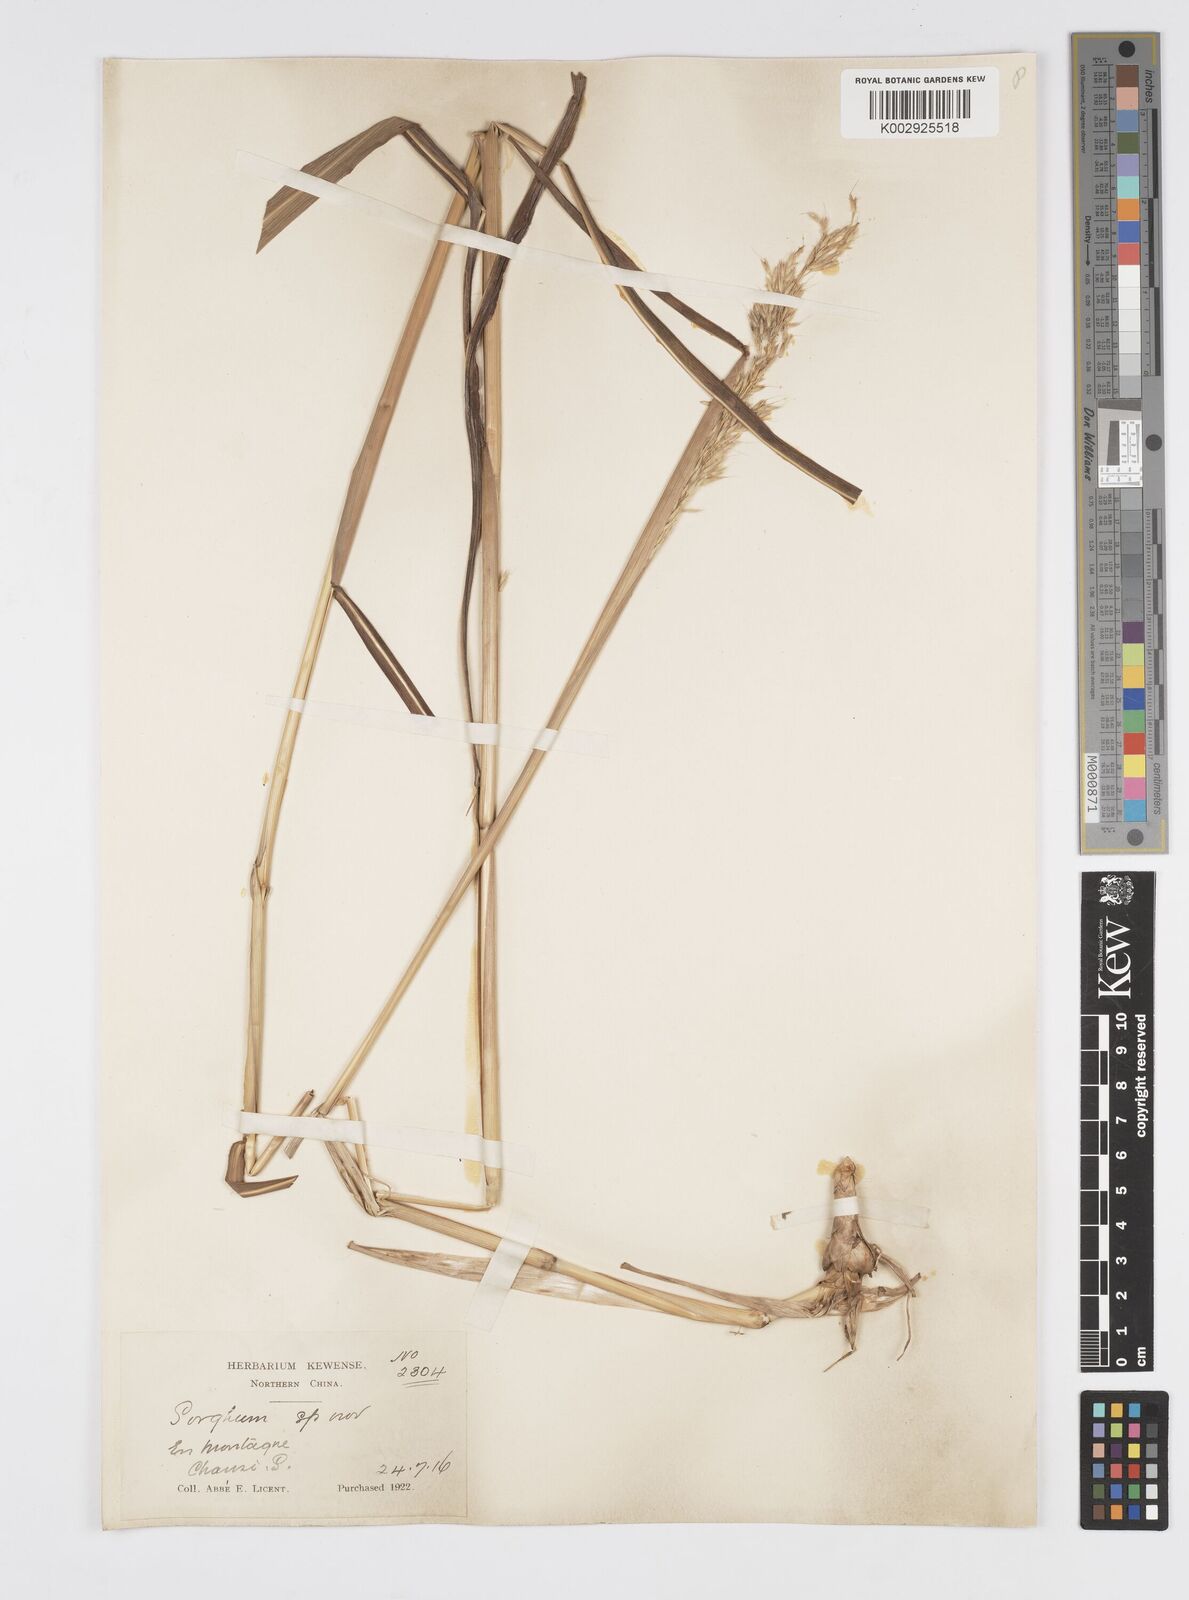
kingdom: Plantae
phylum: Tracheophyta
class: Liliopsida
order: Poales
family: Poaceae
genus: Spodiopogon
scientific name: Spodiopogon sibiricus
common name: Siberian graybeard
